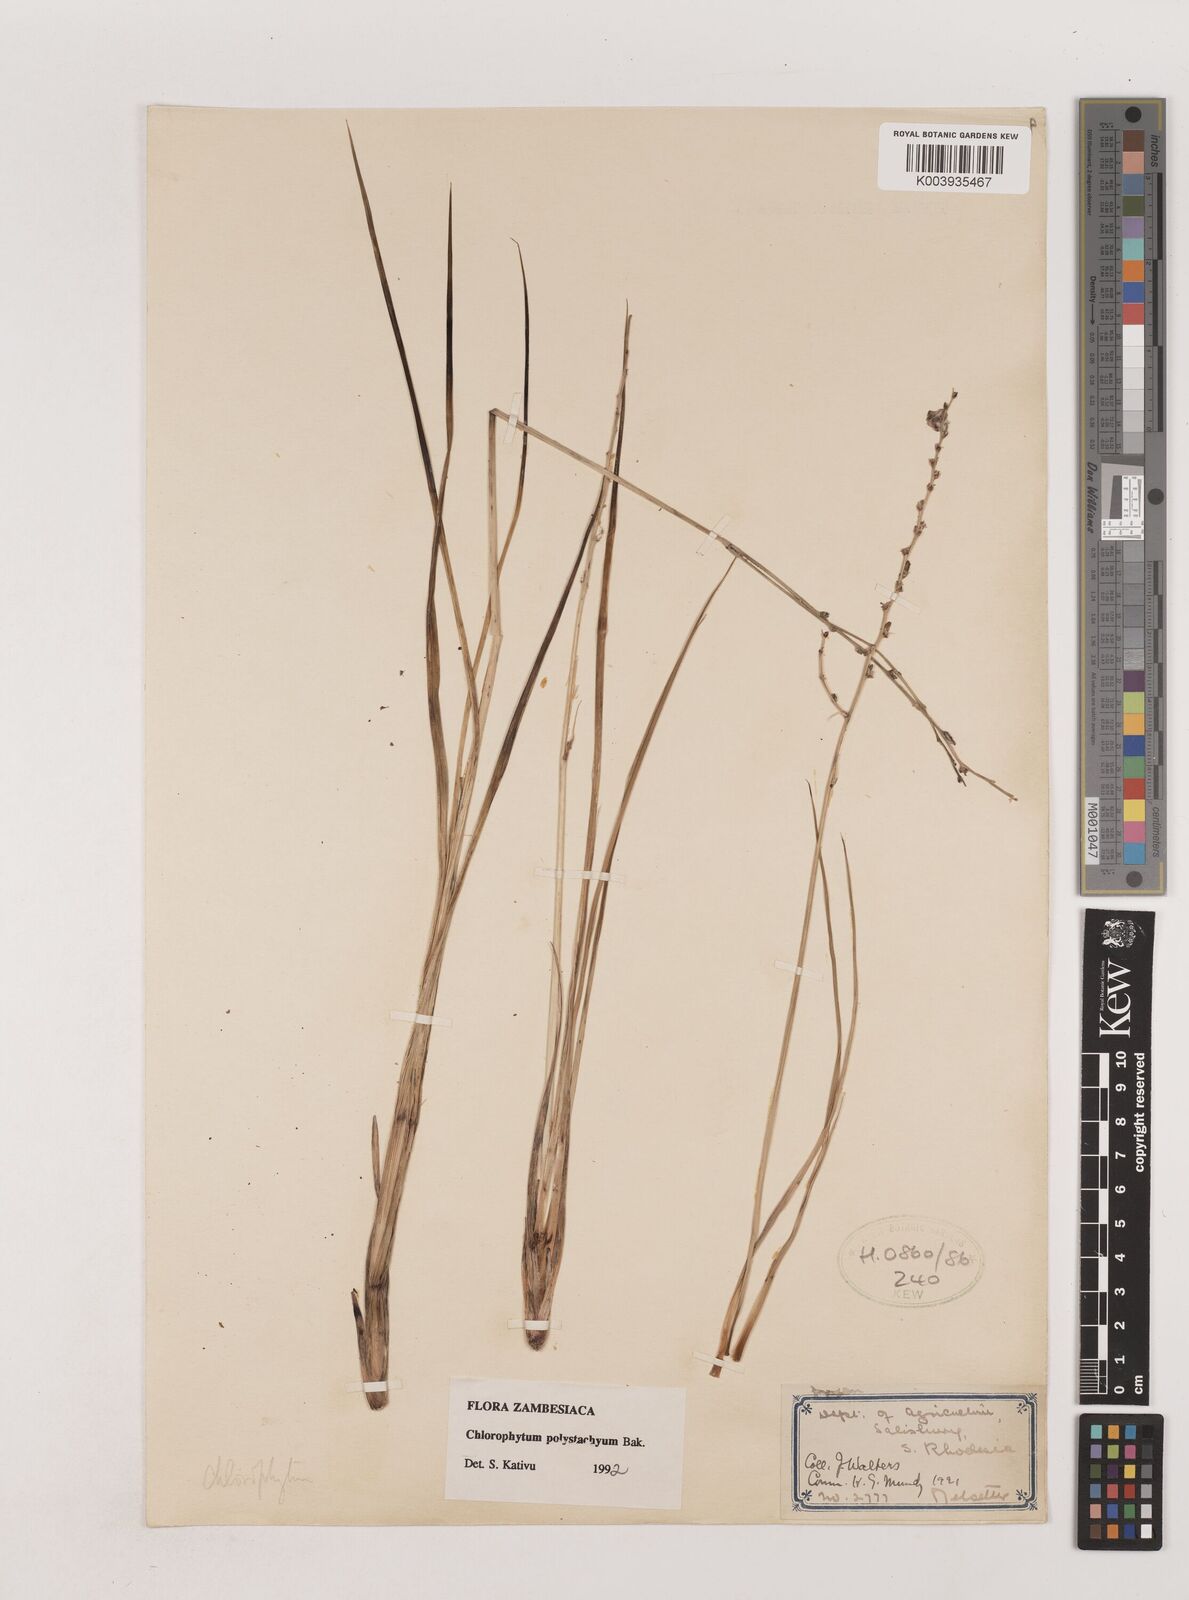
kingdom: Plantae
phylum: Tracheophyta
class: Liliopsida
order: Asparagales
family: Asparagaceae
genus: Chlorophytum
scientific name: Chlorophytum polystachys
